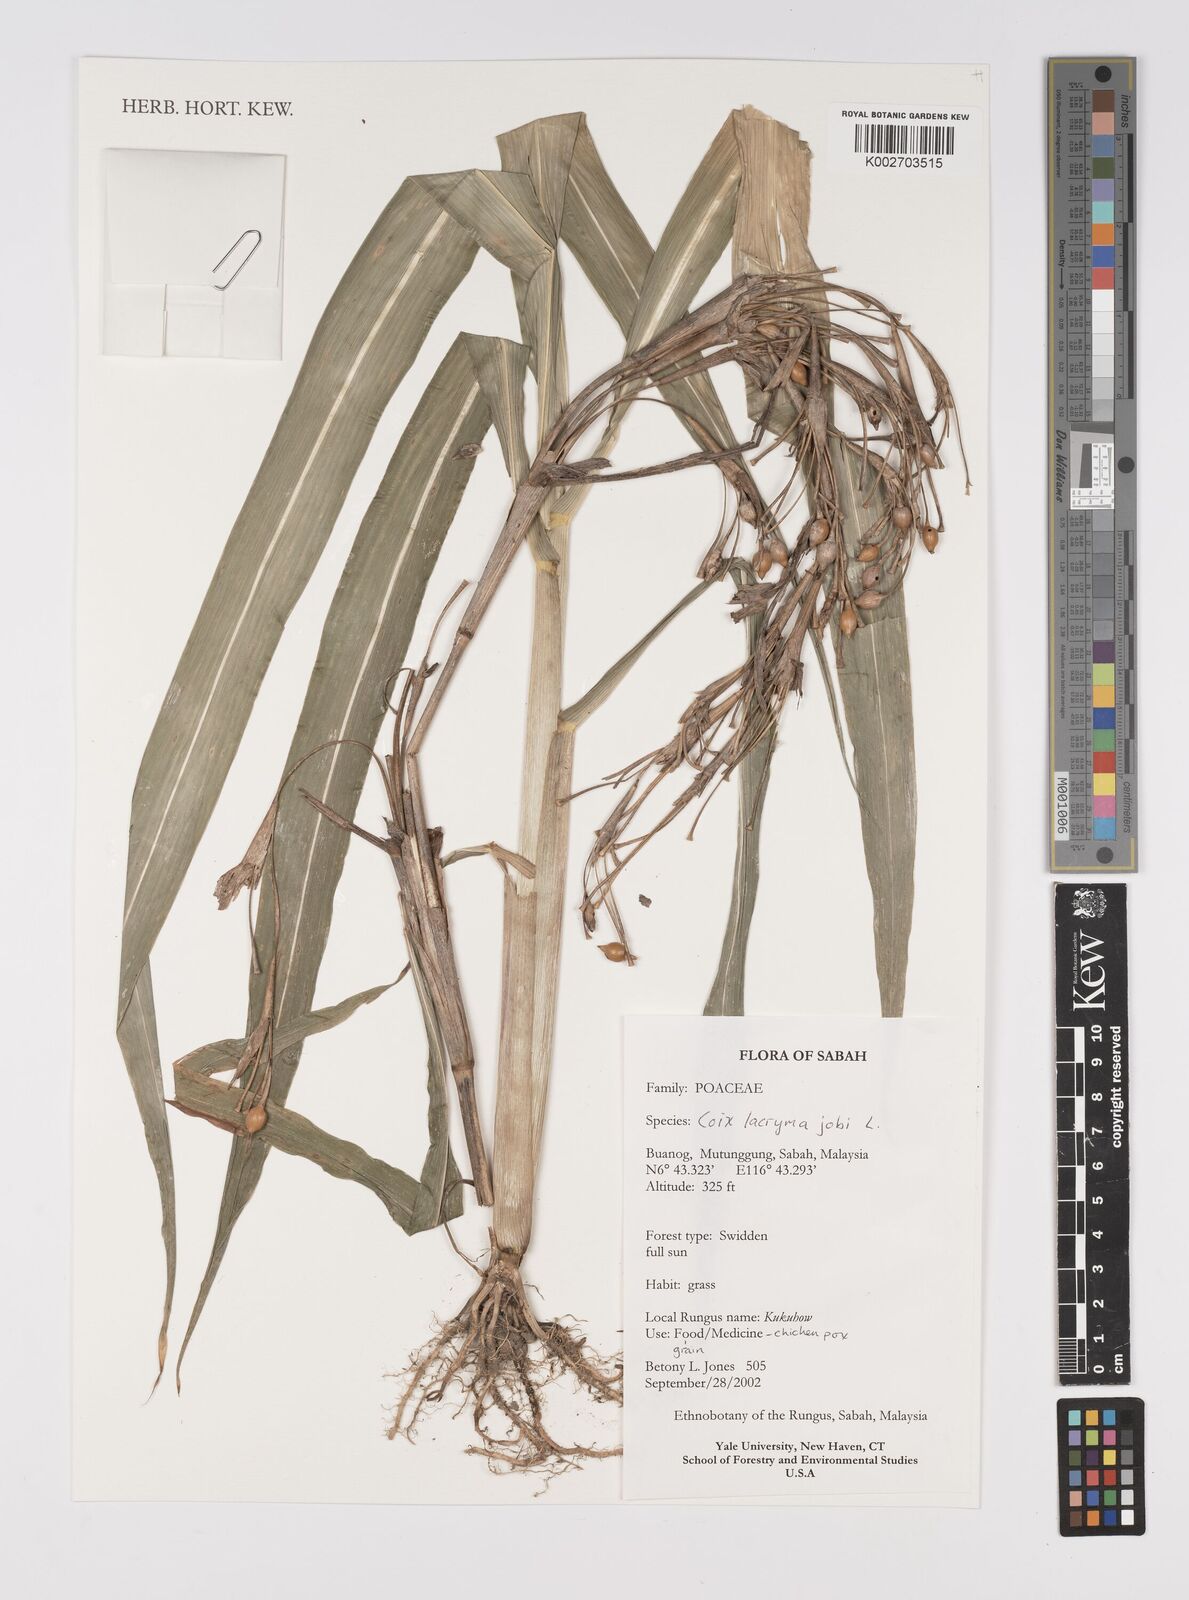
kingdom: Plantae
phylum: Tracheophyta
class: Liliopsida
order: Poales
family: Poaceae
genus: Coix
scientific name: Coix lacryma-jobi
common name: Job's tears
